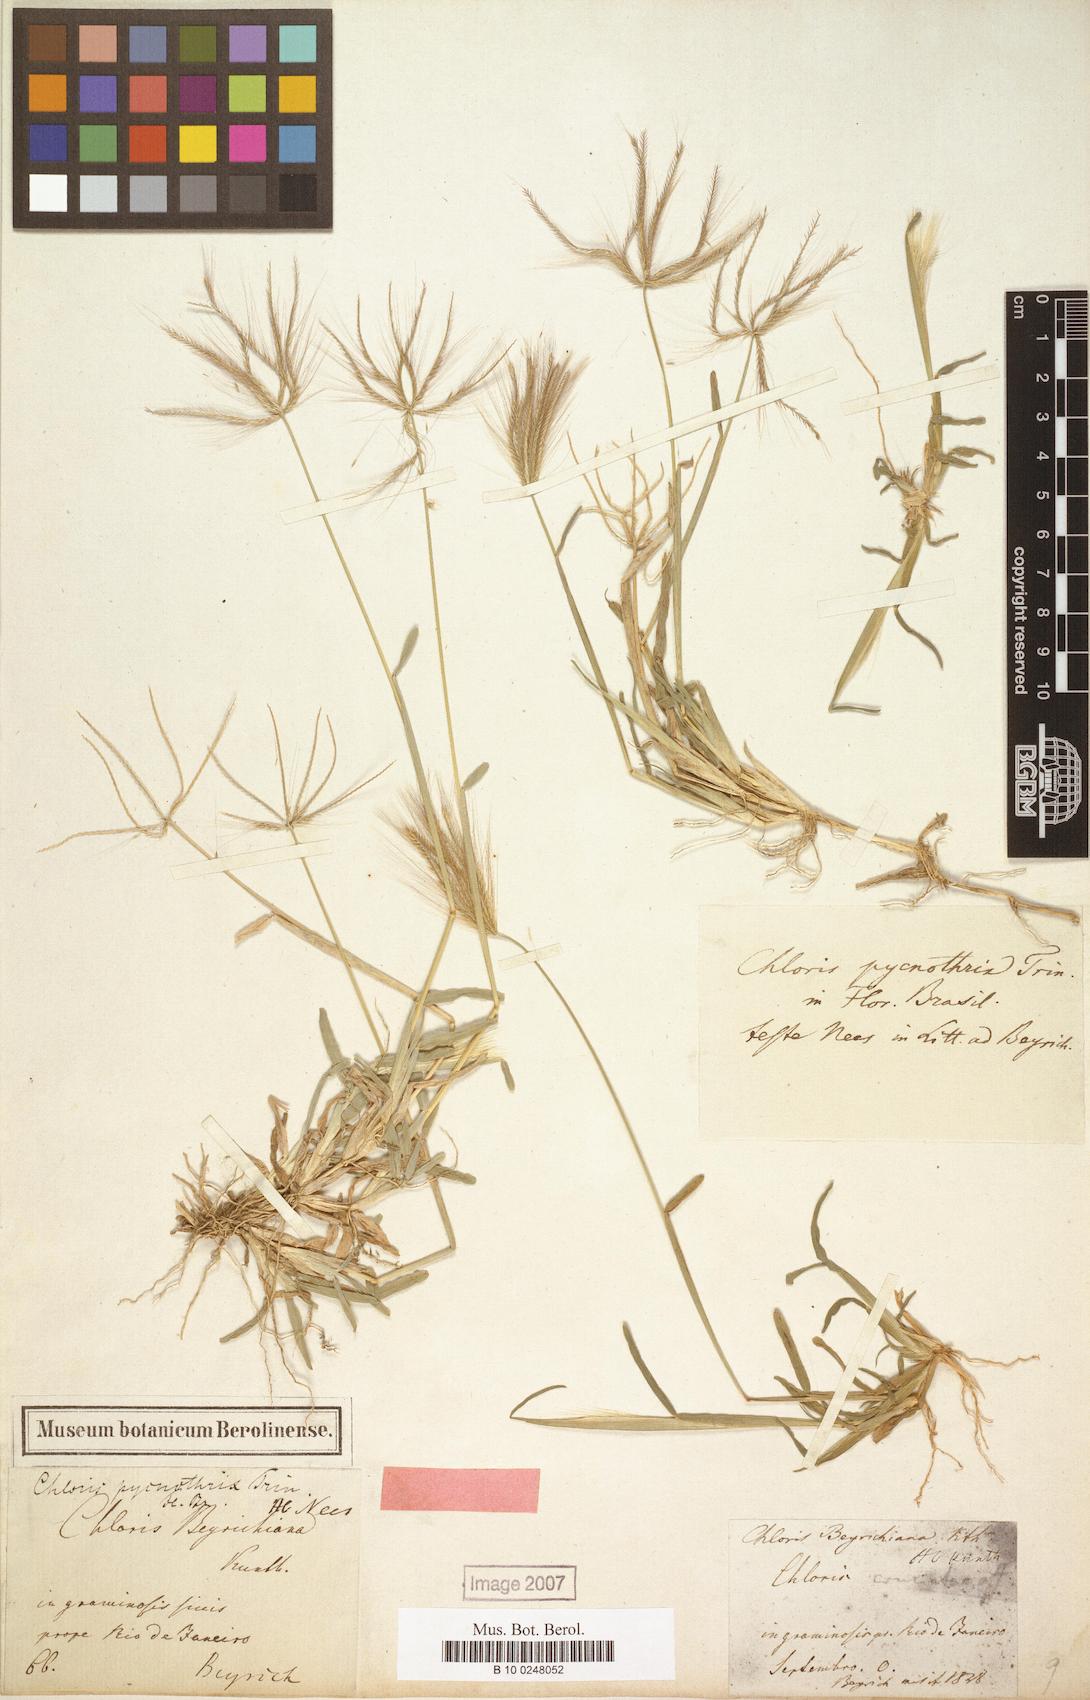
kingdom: Plantae
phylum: Tracheophyta
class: Liliopsida
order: Poales
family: Poaceae
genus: Chloris
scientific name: Chloris pycnothrix
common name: Spiderweb chloris
